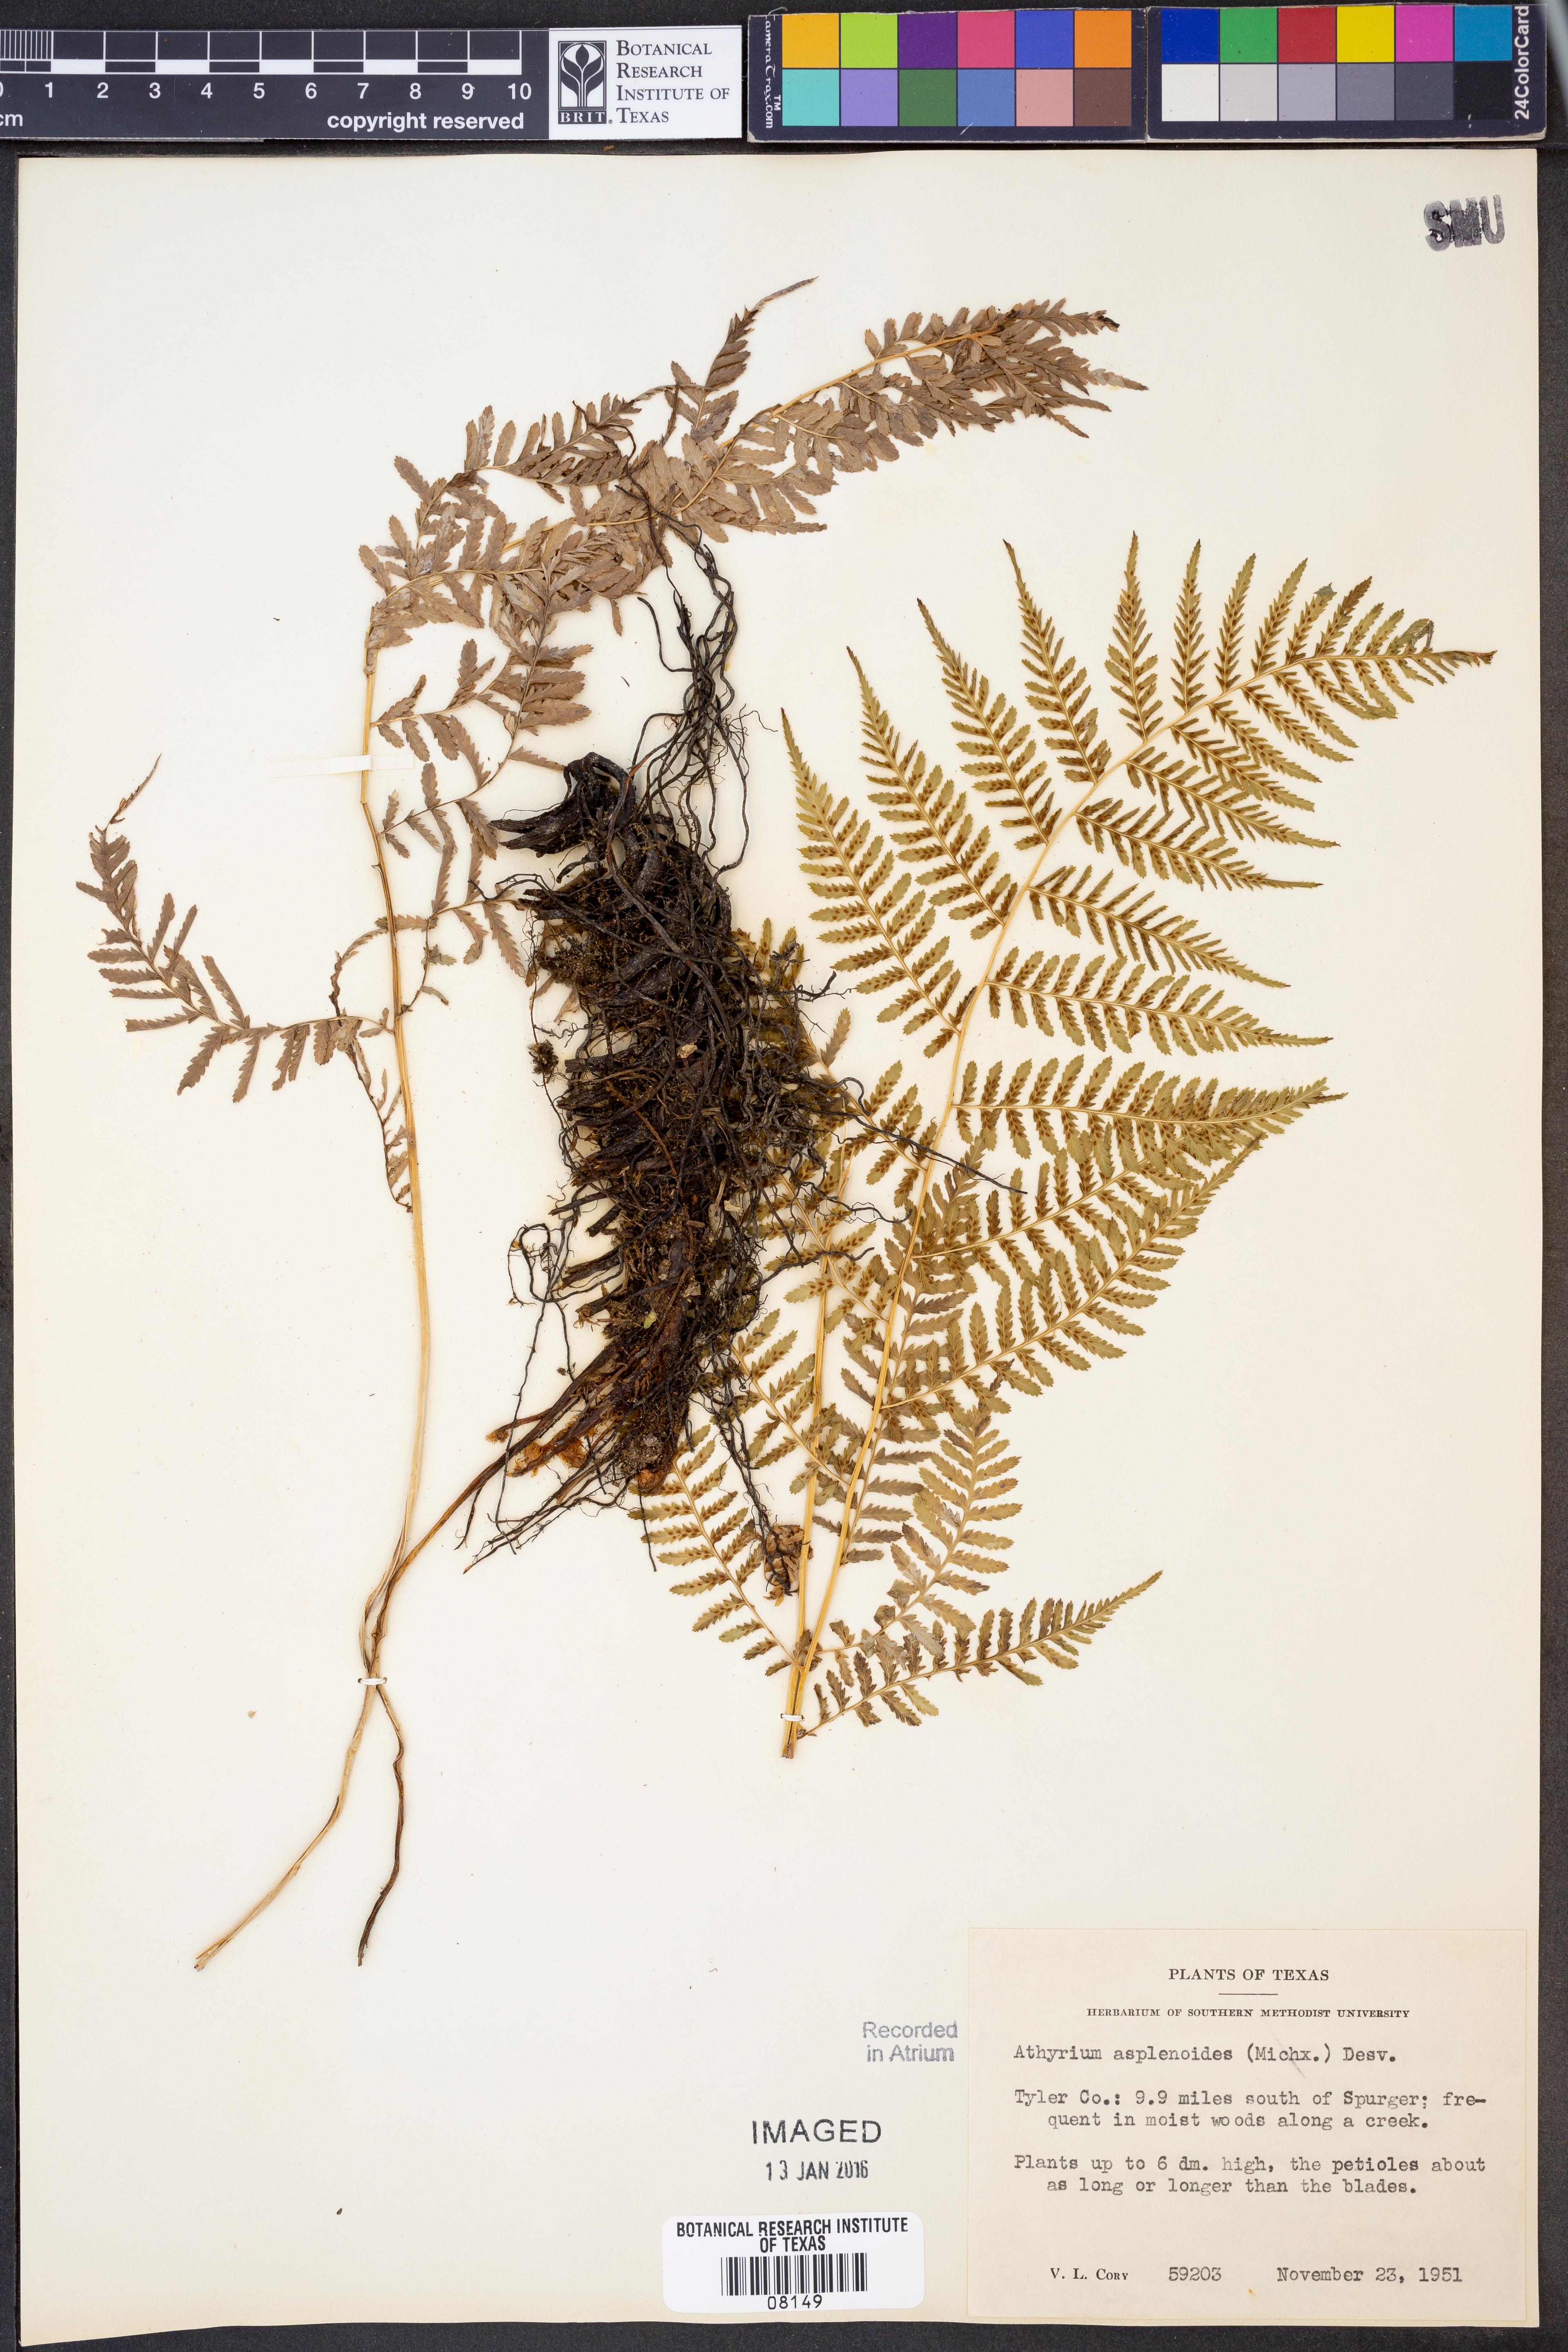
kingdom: Plantae
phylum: Tracheophyta
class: Polypodiopsida
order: Polypodiales
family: Athyriaceae
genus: Athyrium
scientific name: Athyrium asplenioides
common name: Southern lady fern
